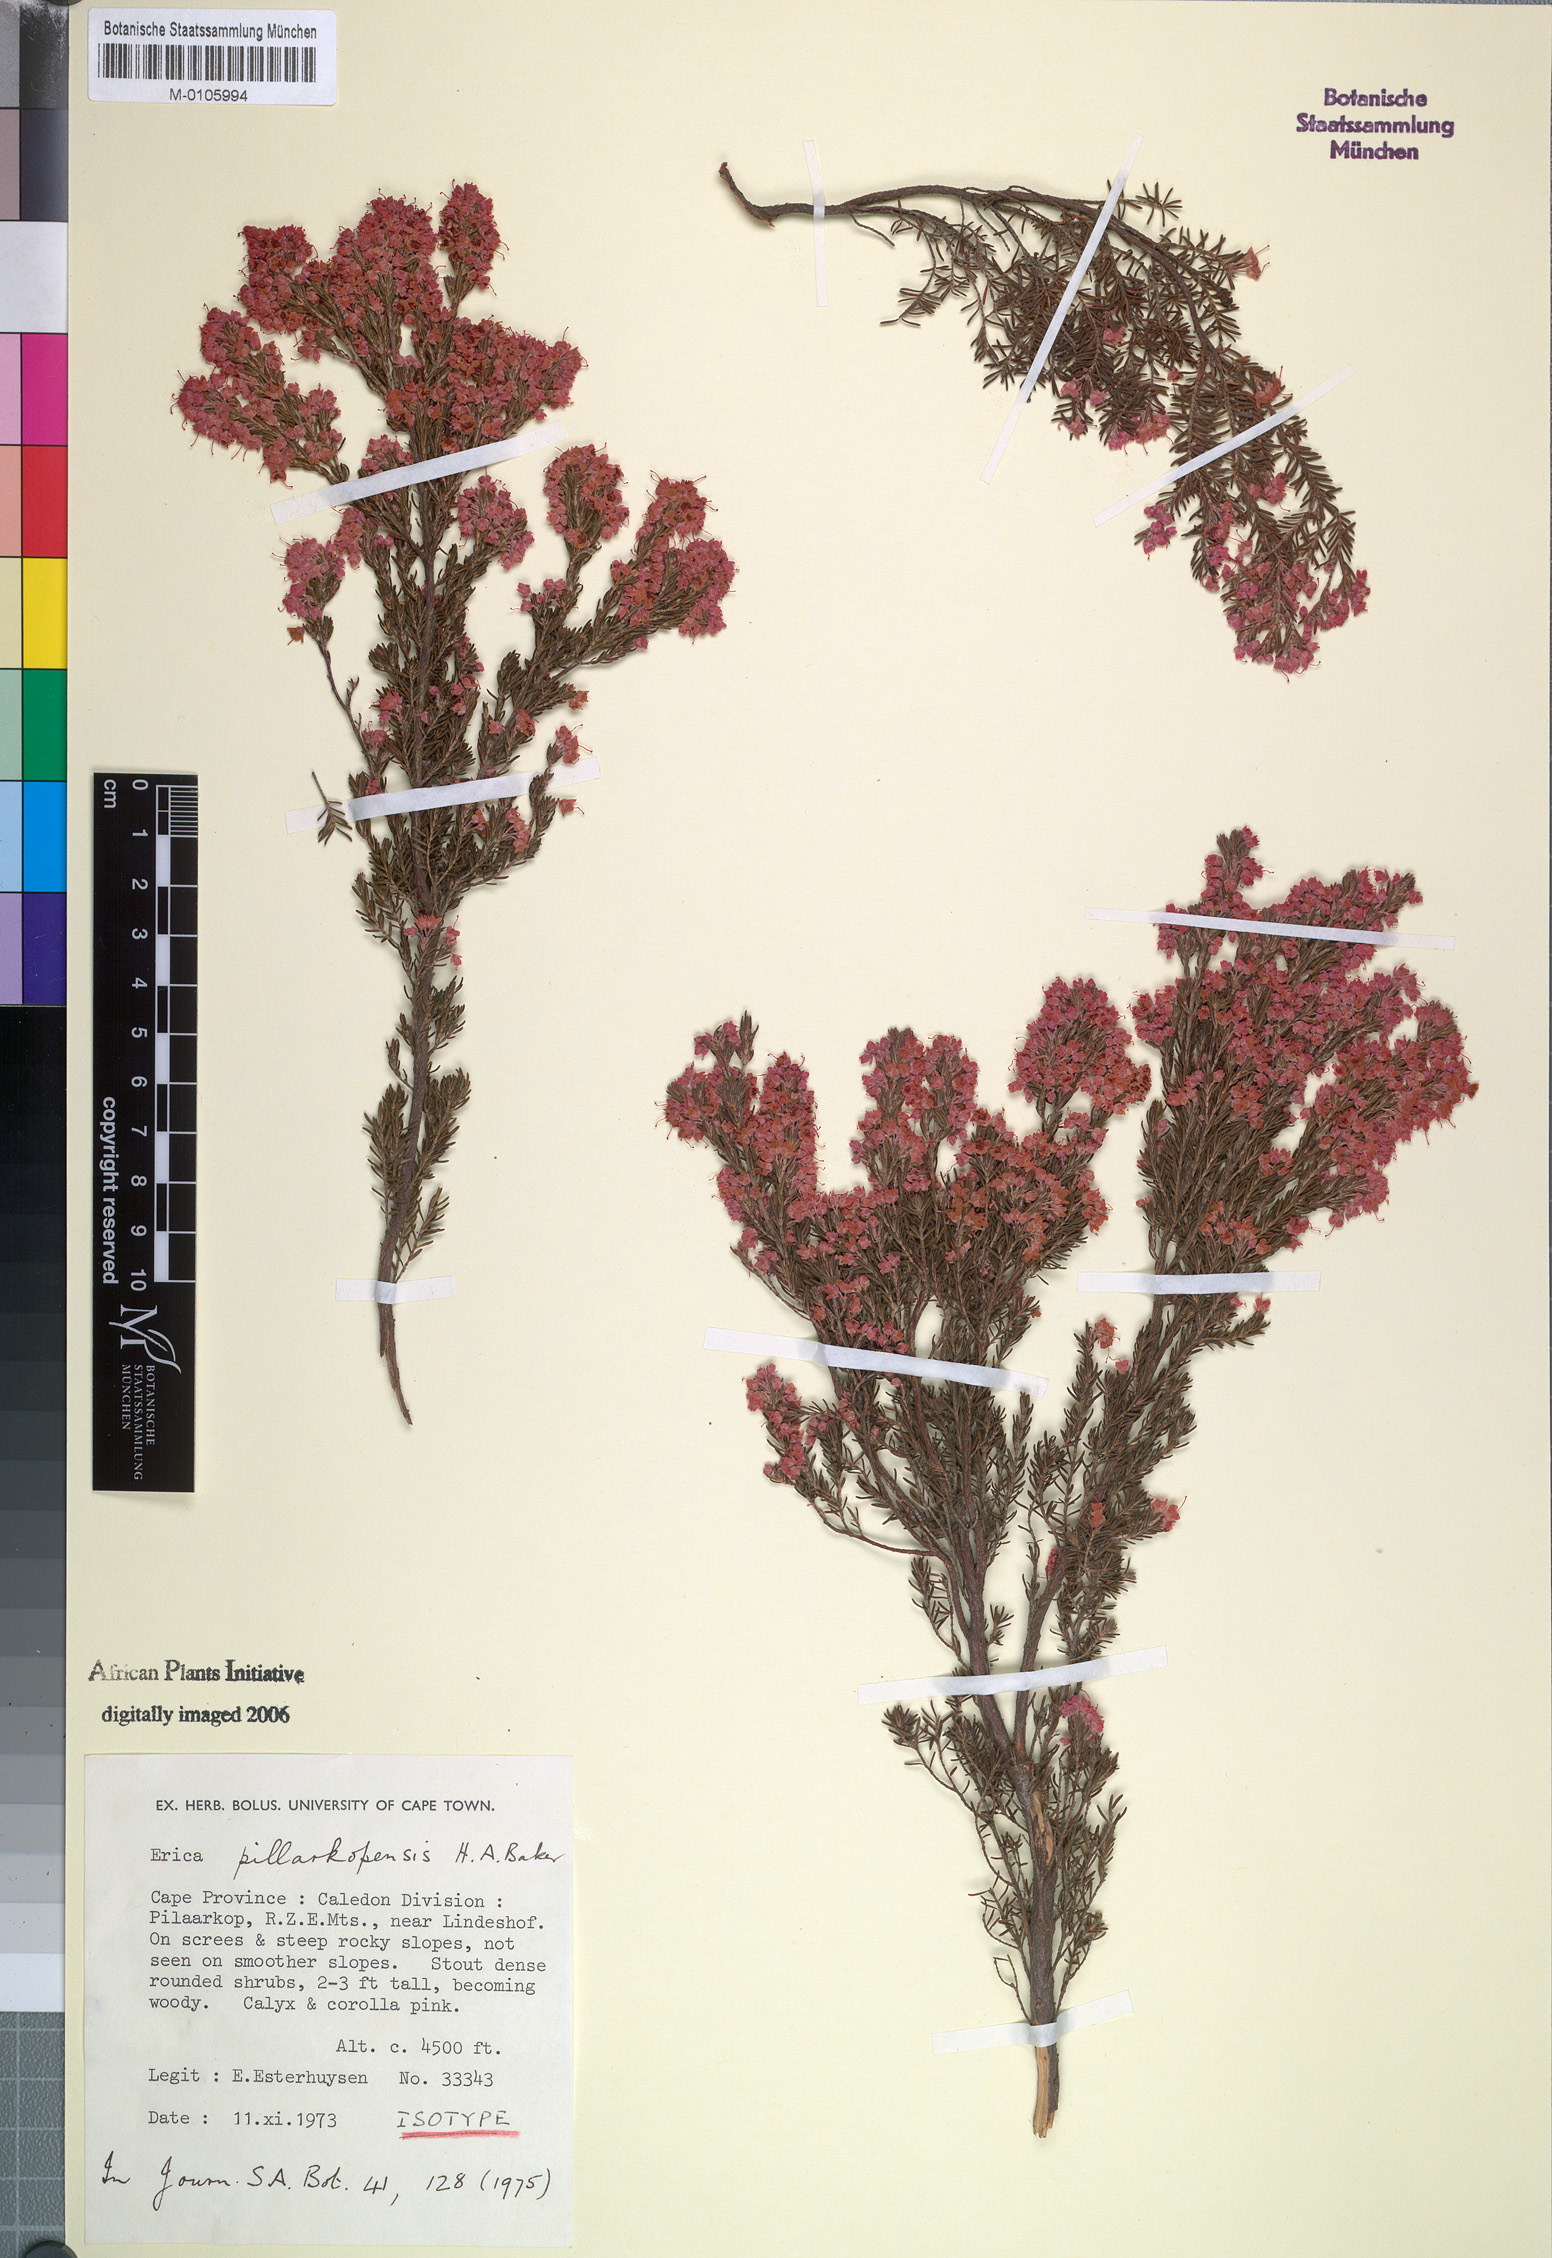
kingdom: Plantae
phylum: Tracheophyta
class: Magnoliopsida
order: Ericales
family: Ericaceae
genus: Erica
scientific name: Erica pillarkopensis
